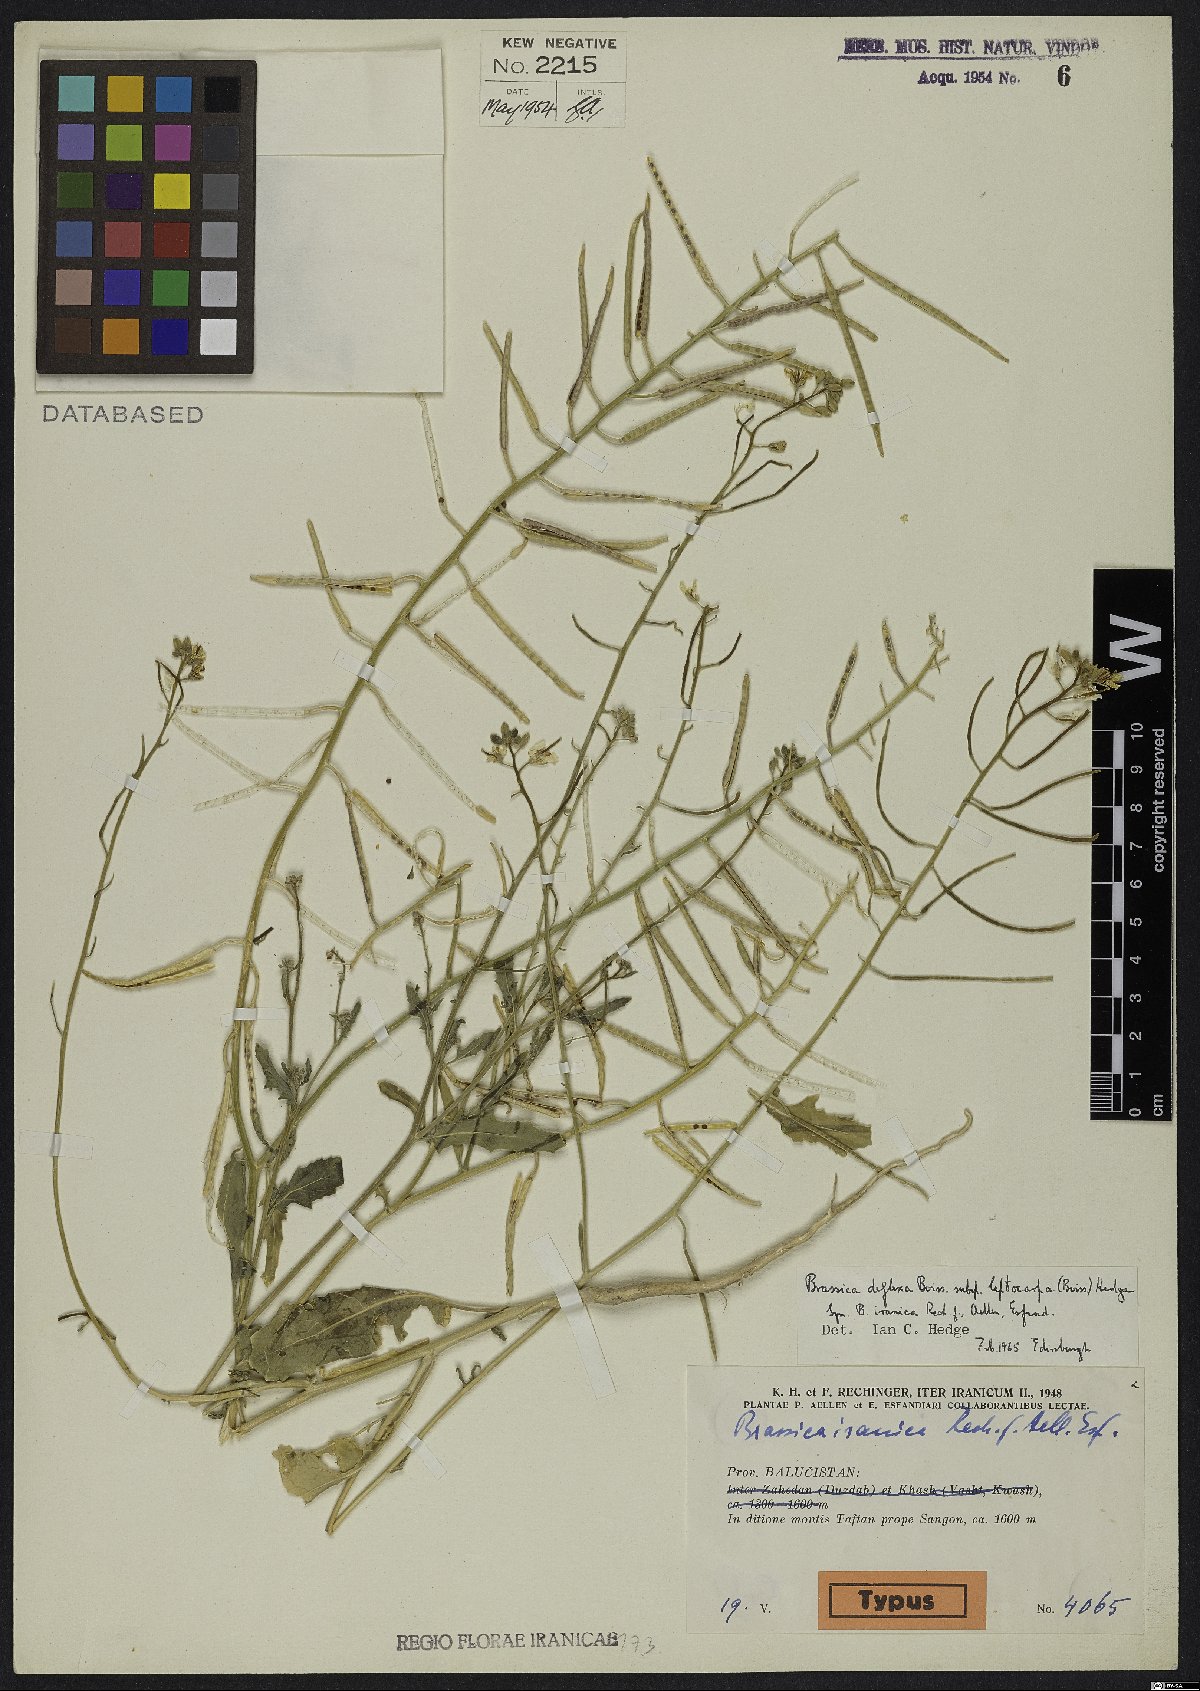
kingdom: Plantae
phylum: Tracheophyta
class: Magnoliopsida
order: Brassicales
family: Brassicaceae
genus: Brassica
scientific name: Brassica deflexa
